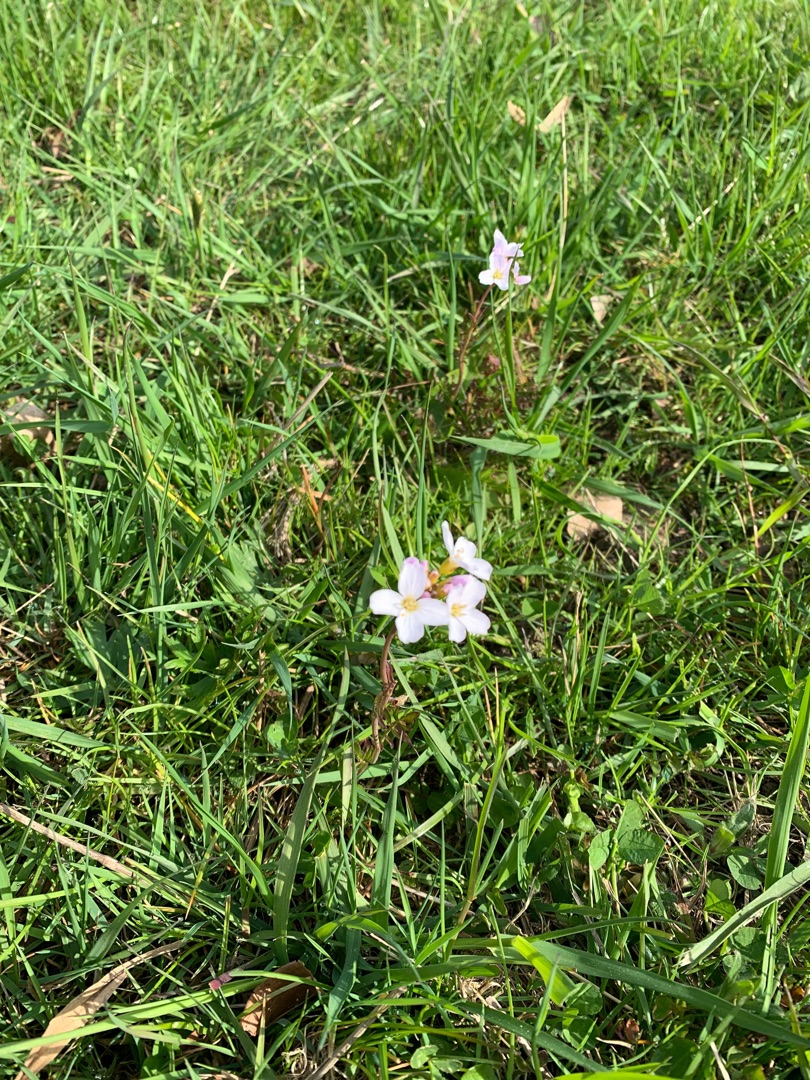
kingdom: Plantae
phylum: Tracheophyta
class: Magnoliopsida
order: Brassicales
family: Brassicaceae
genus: Cardamine
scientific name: Cardamine pratensis
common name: Engkarse
